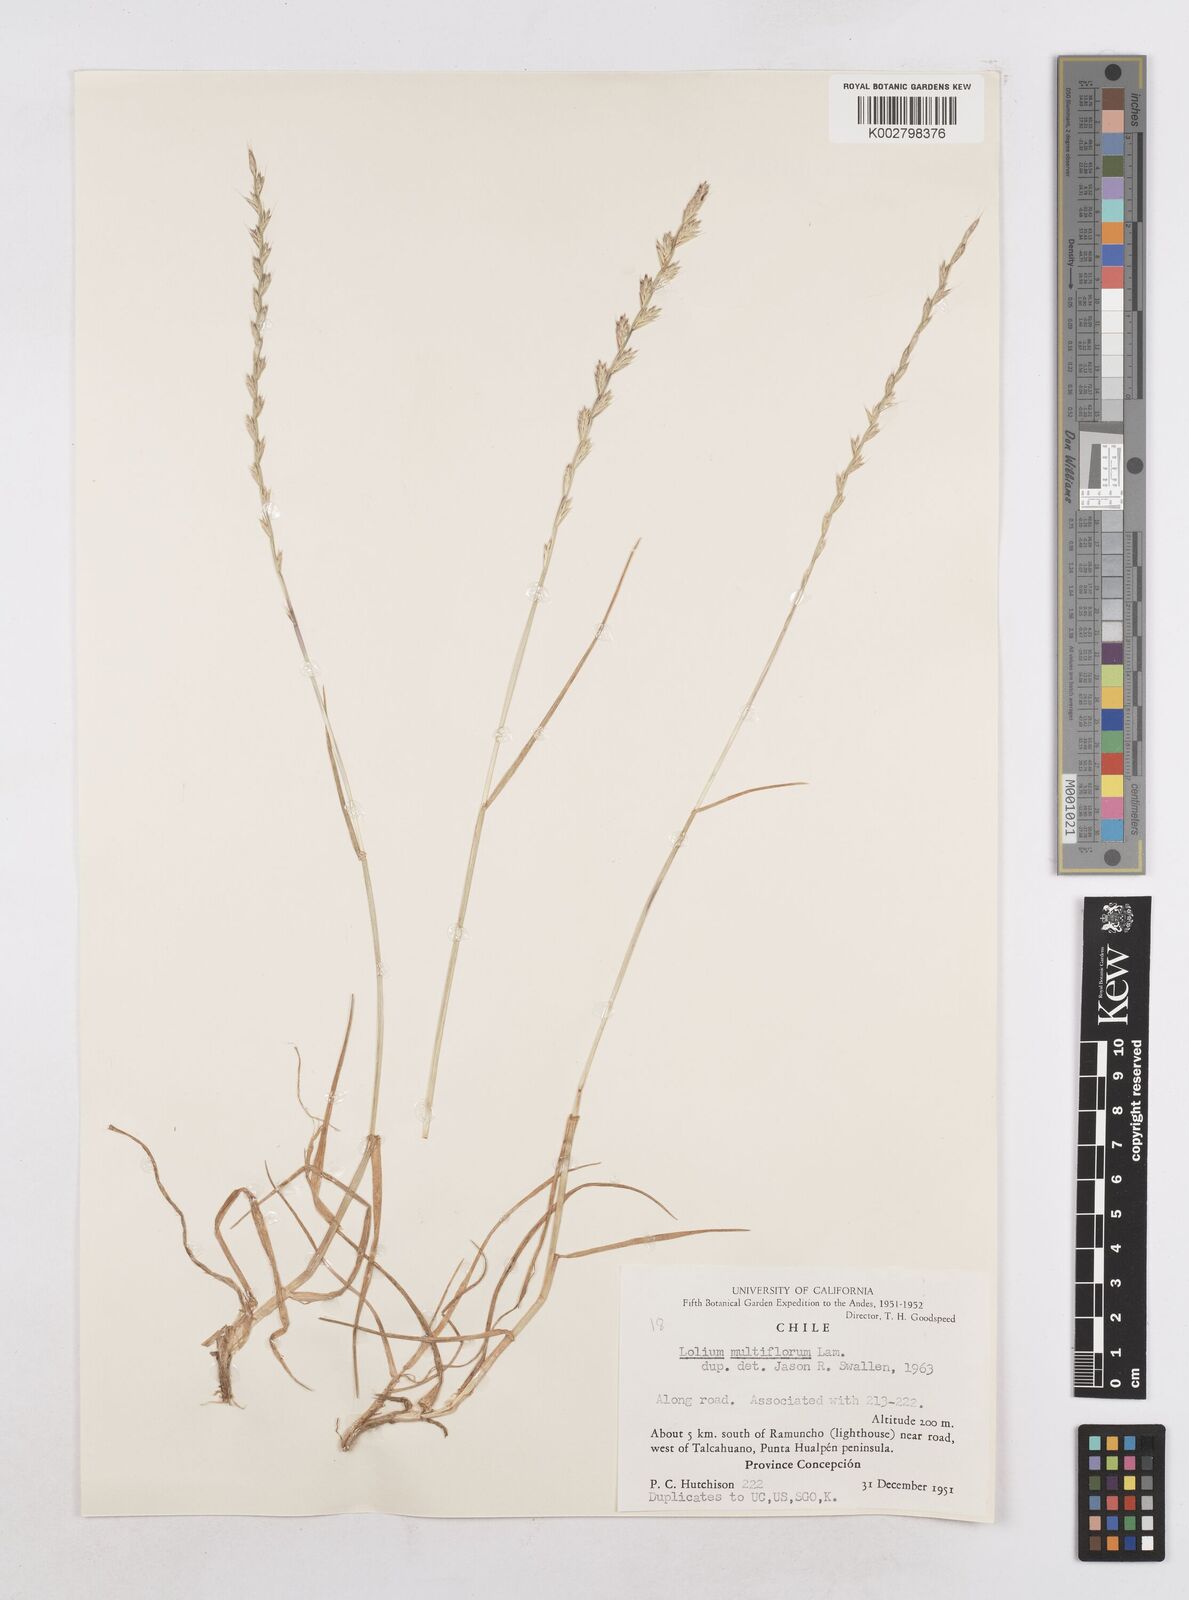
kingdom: Plantae
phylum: Tracheophyta
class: Liliopsida
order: Poales
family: Poaceae
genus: Lolium
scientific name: Lolium multiflorum
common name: Annual ryegrass
